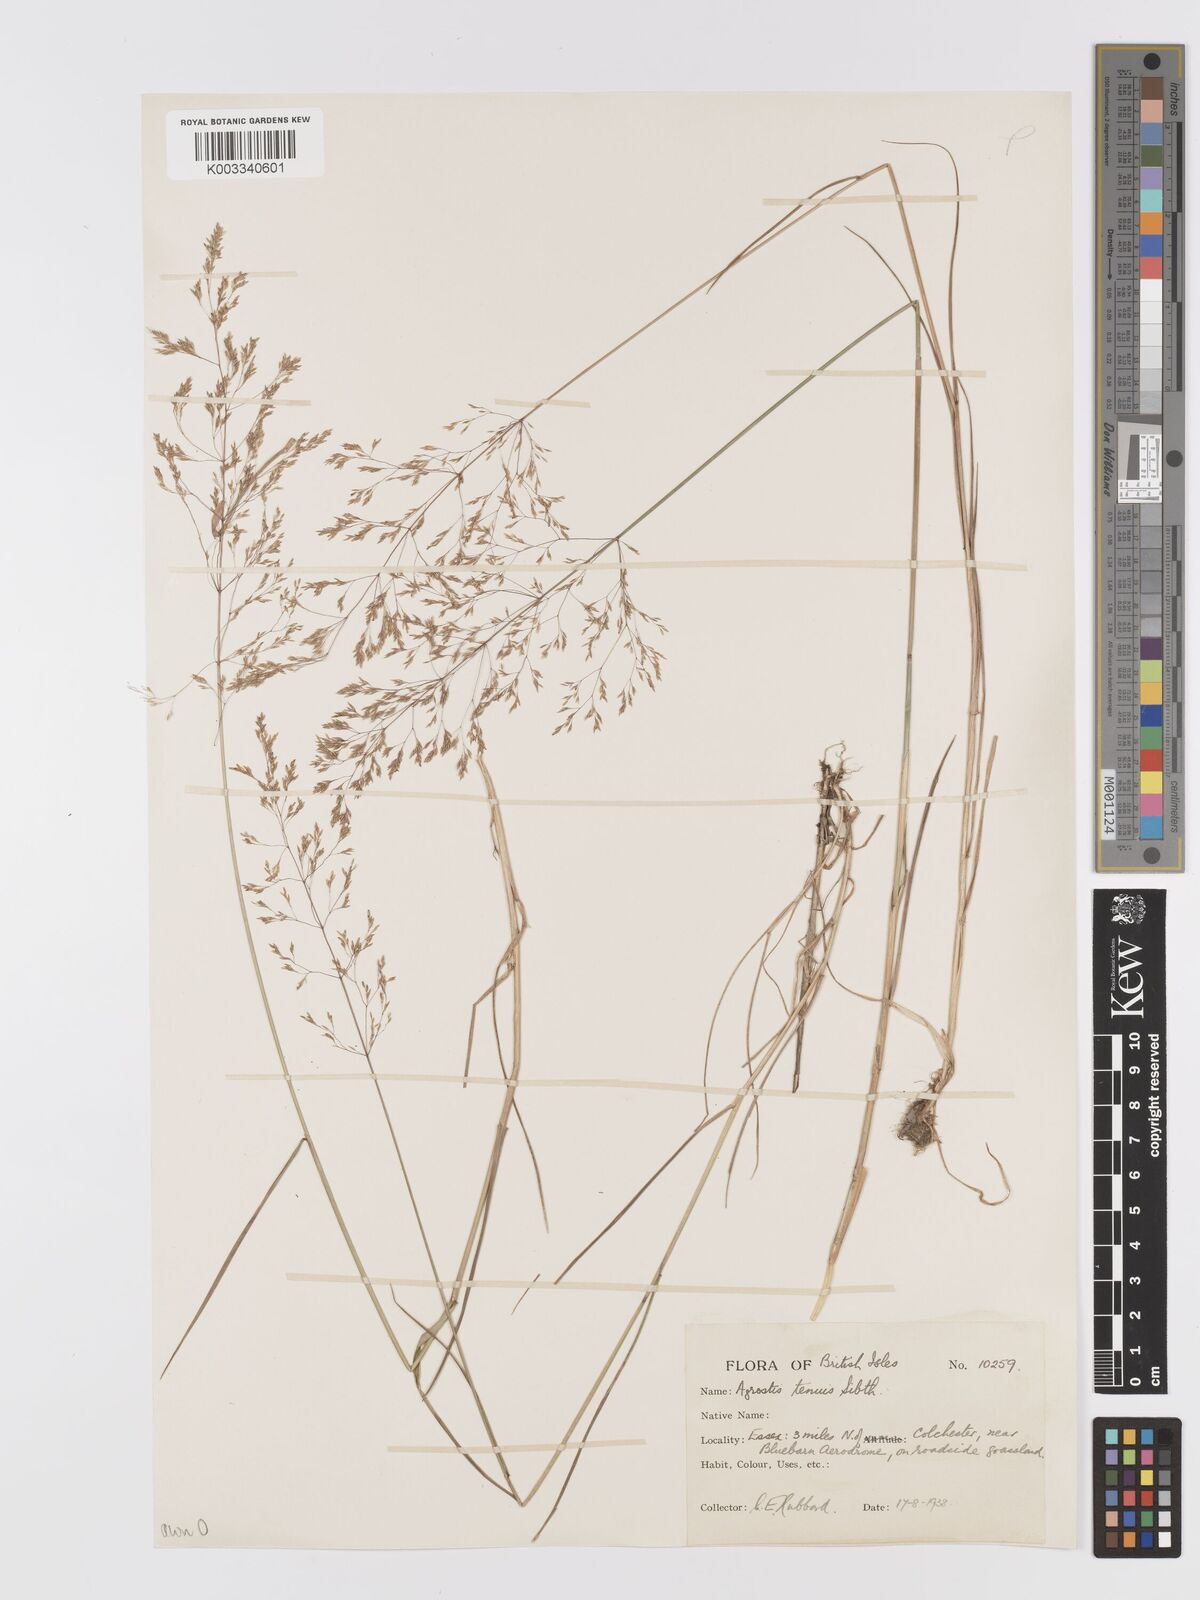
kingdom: Plantae
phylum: Tracheophyta
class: Liliopsida
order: Poales
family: Poaceae
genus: Agrostis
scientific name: Agrostis capillaris
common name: Colonial bentgrass
